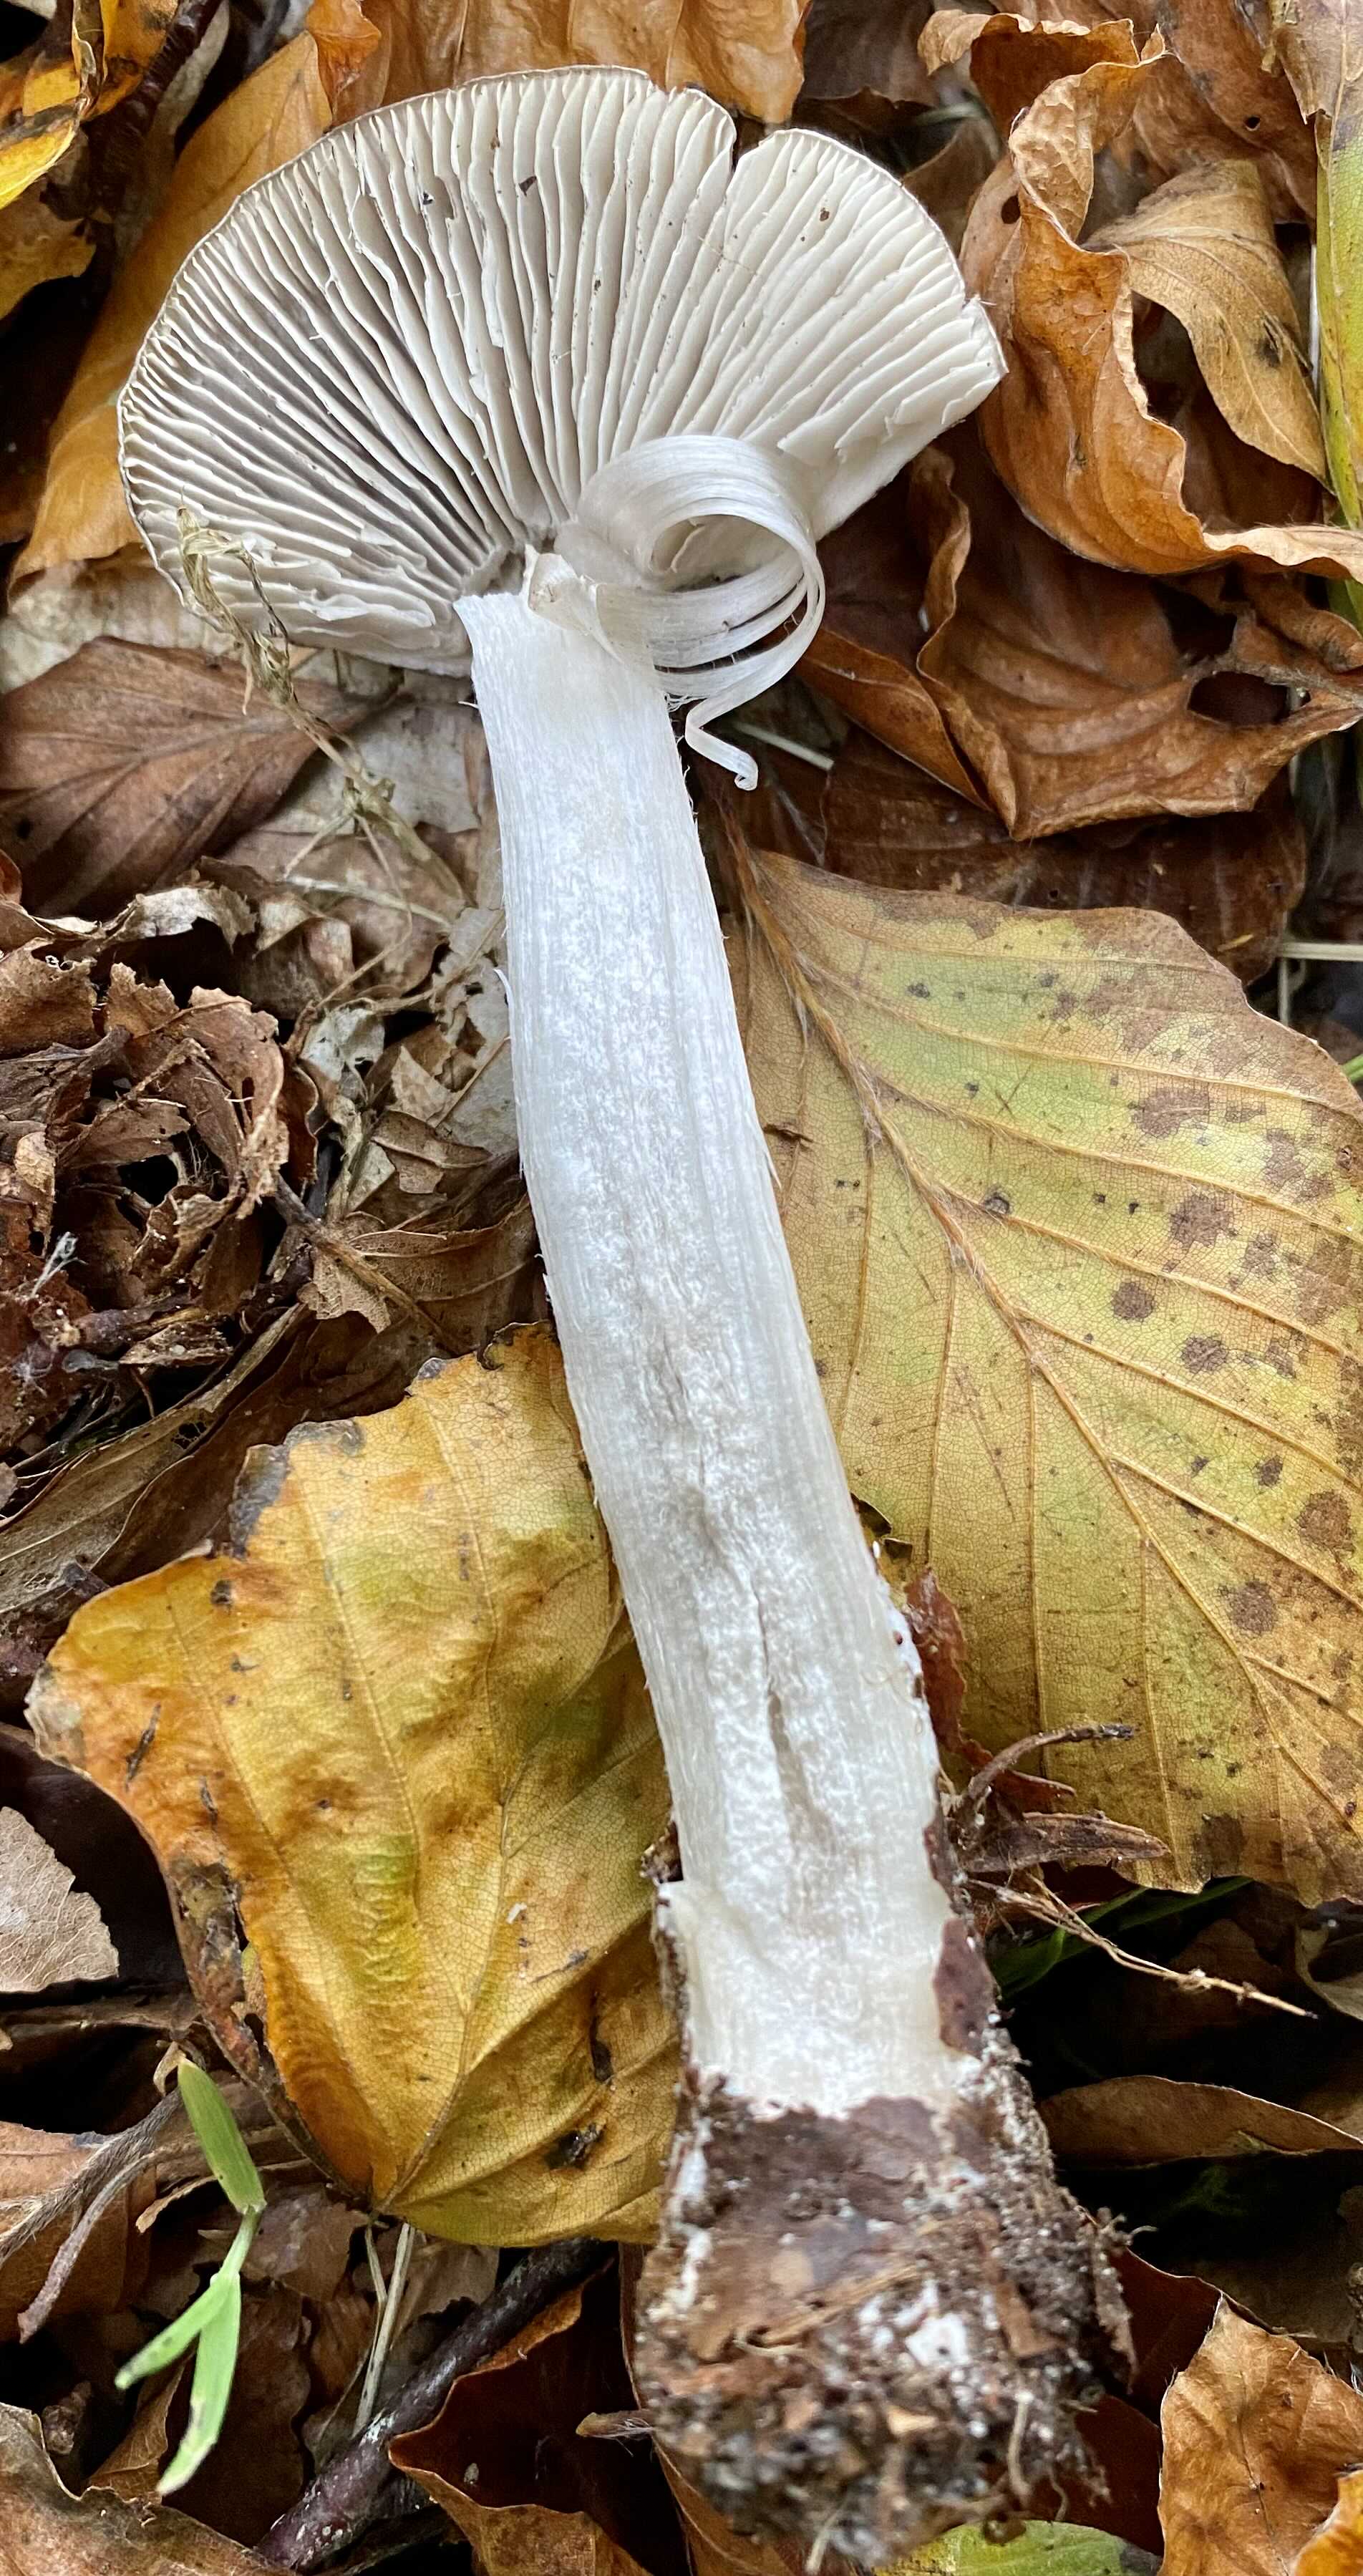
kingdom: Fungi
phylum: Basidiomycota
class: Agaricomycetes
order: Agaricales
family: Tricholomataceae
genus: Tricholoma
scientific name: Tricholoma sciodes
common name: stribet ridderhat
